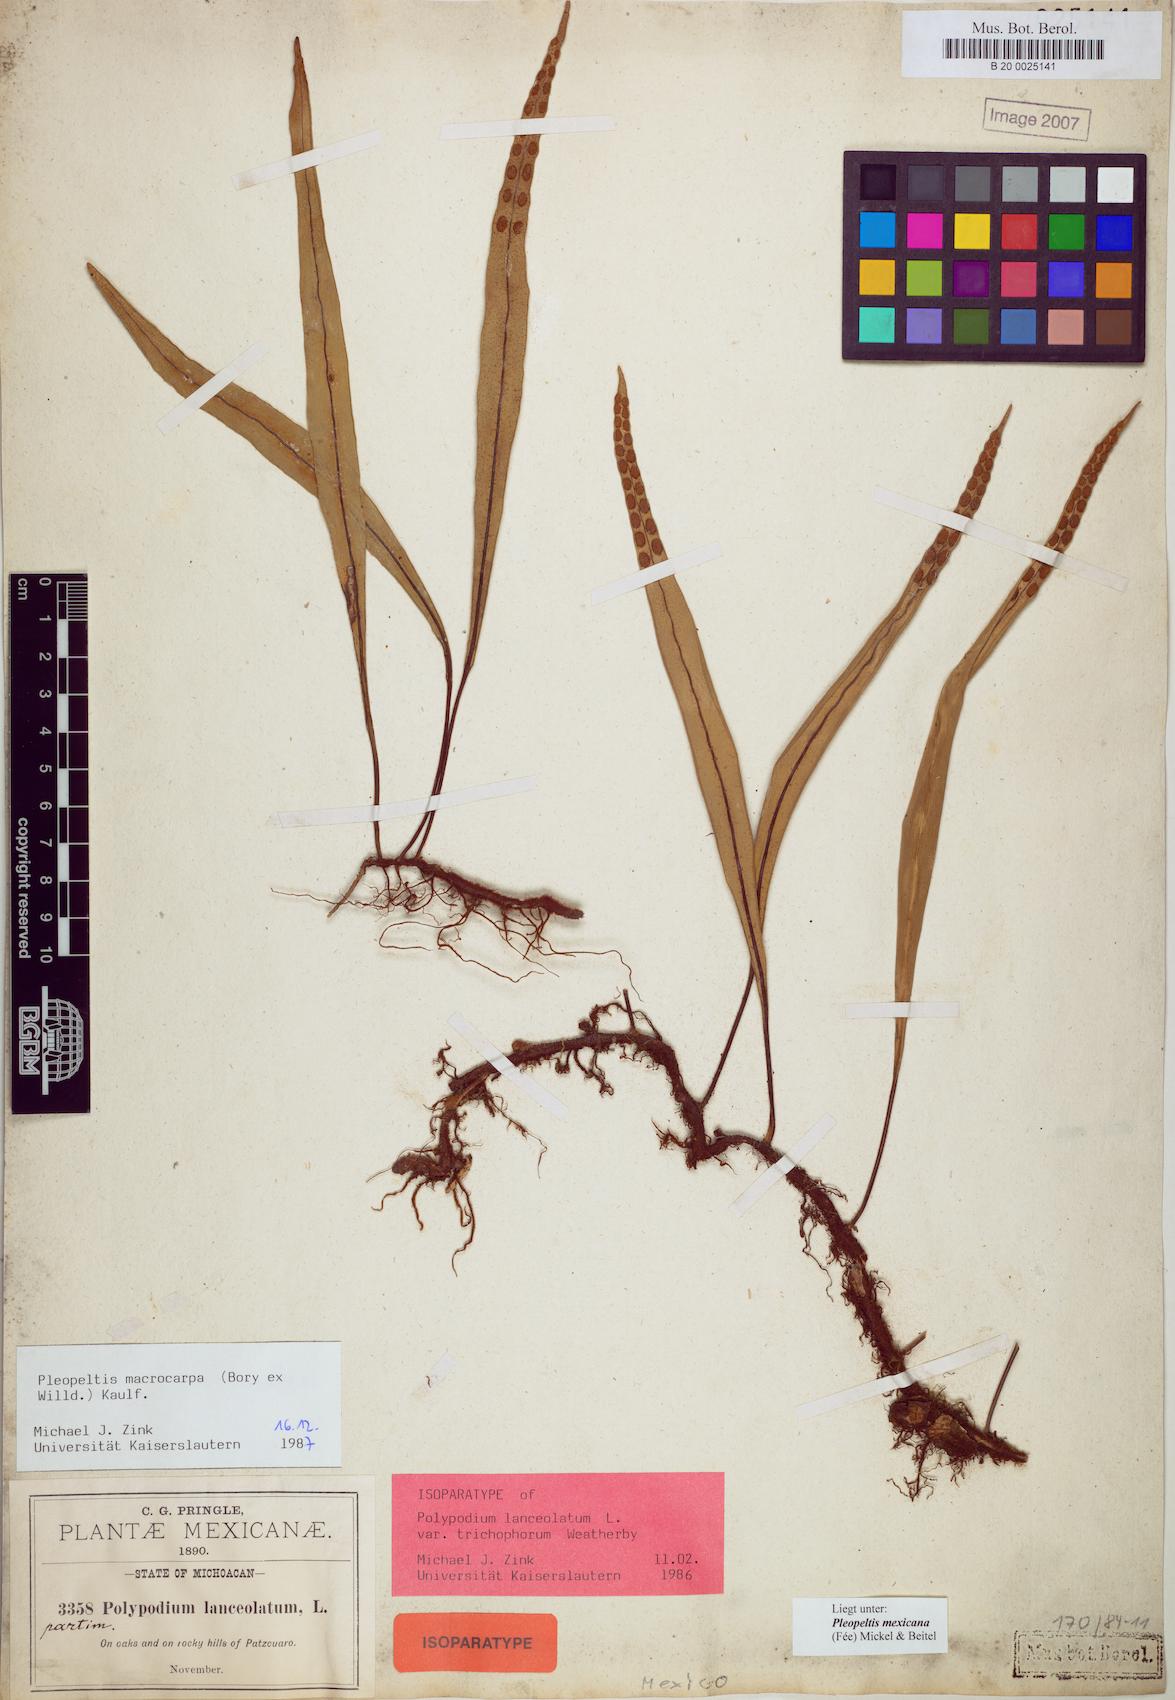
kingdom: Plantae
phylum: Tracheophyta
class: Polypodiopsida
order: Polypodiales
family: Polypodiaceae
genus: Pleopeltis
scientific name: Pleopeltis mexicana
